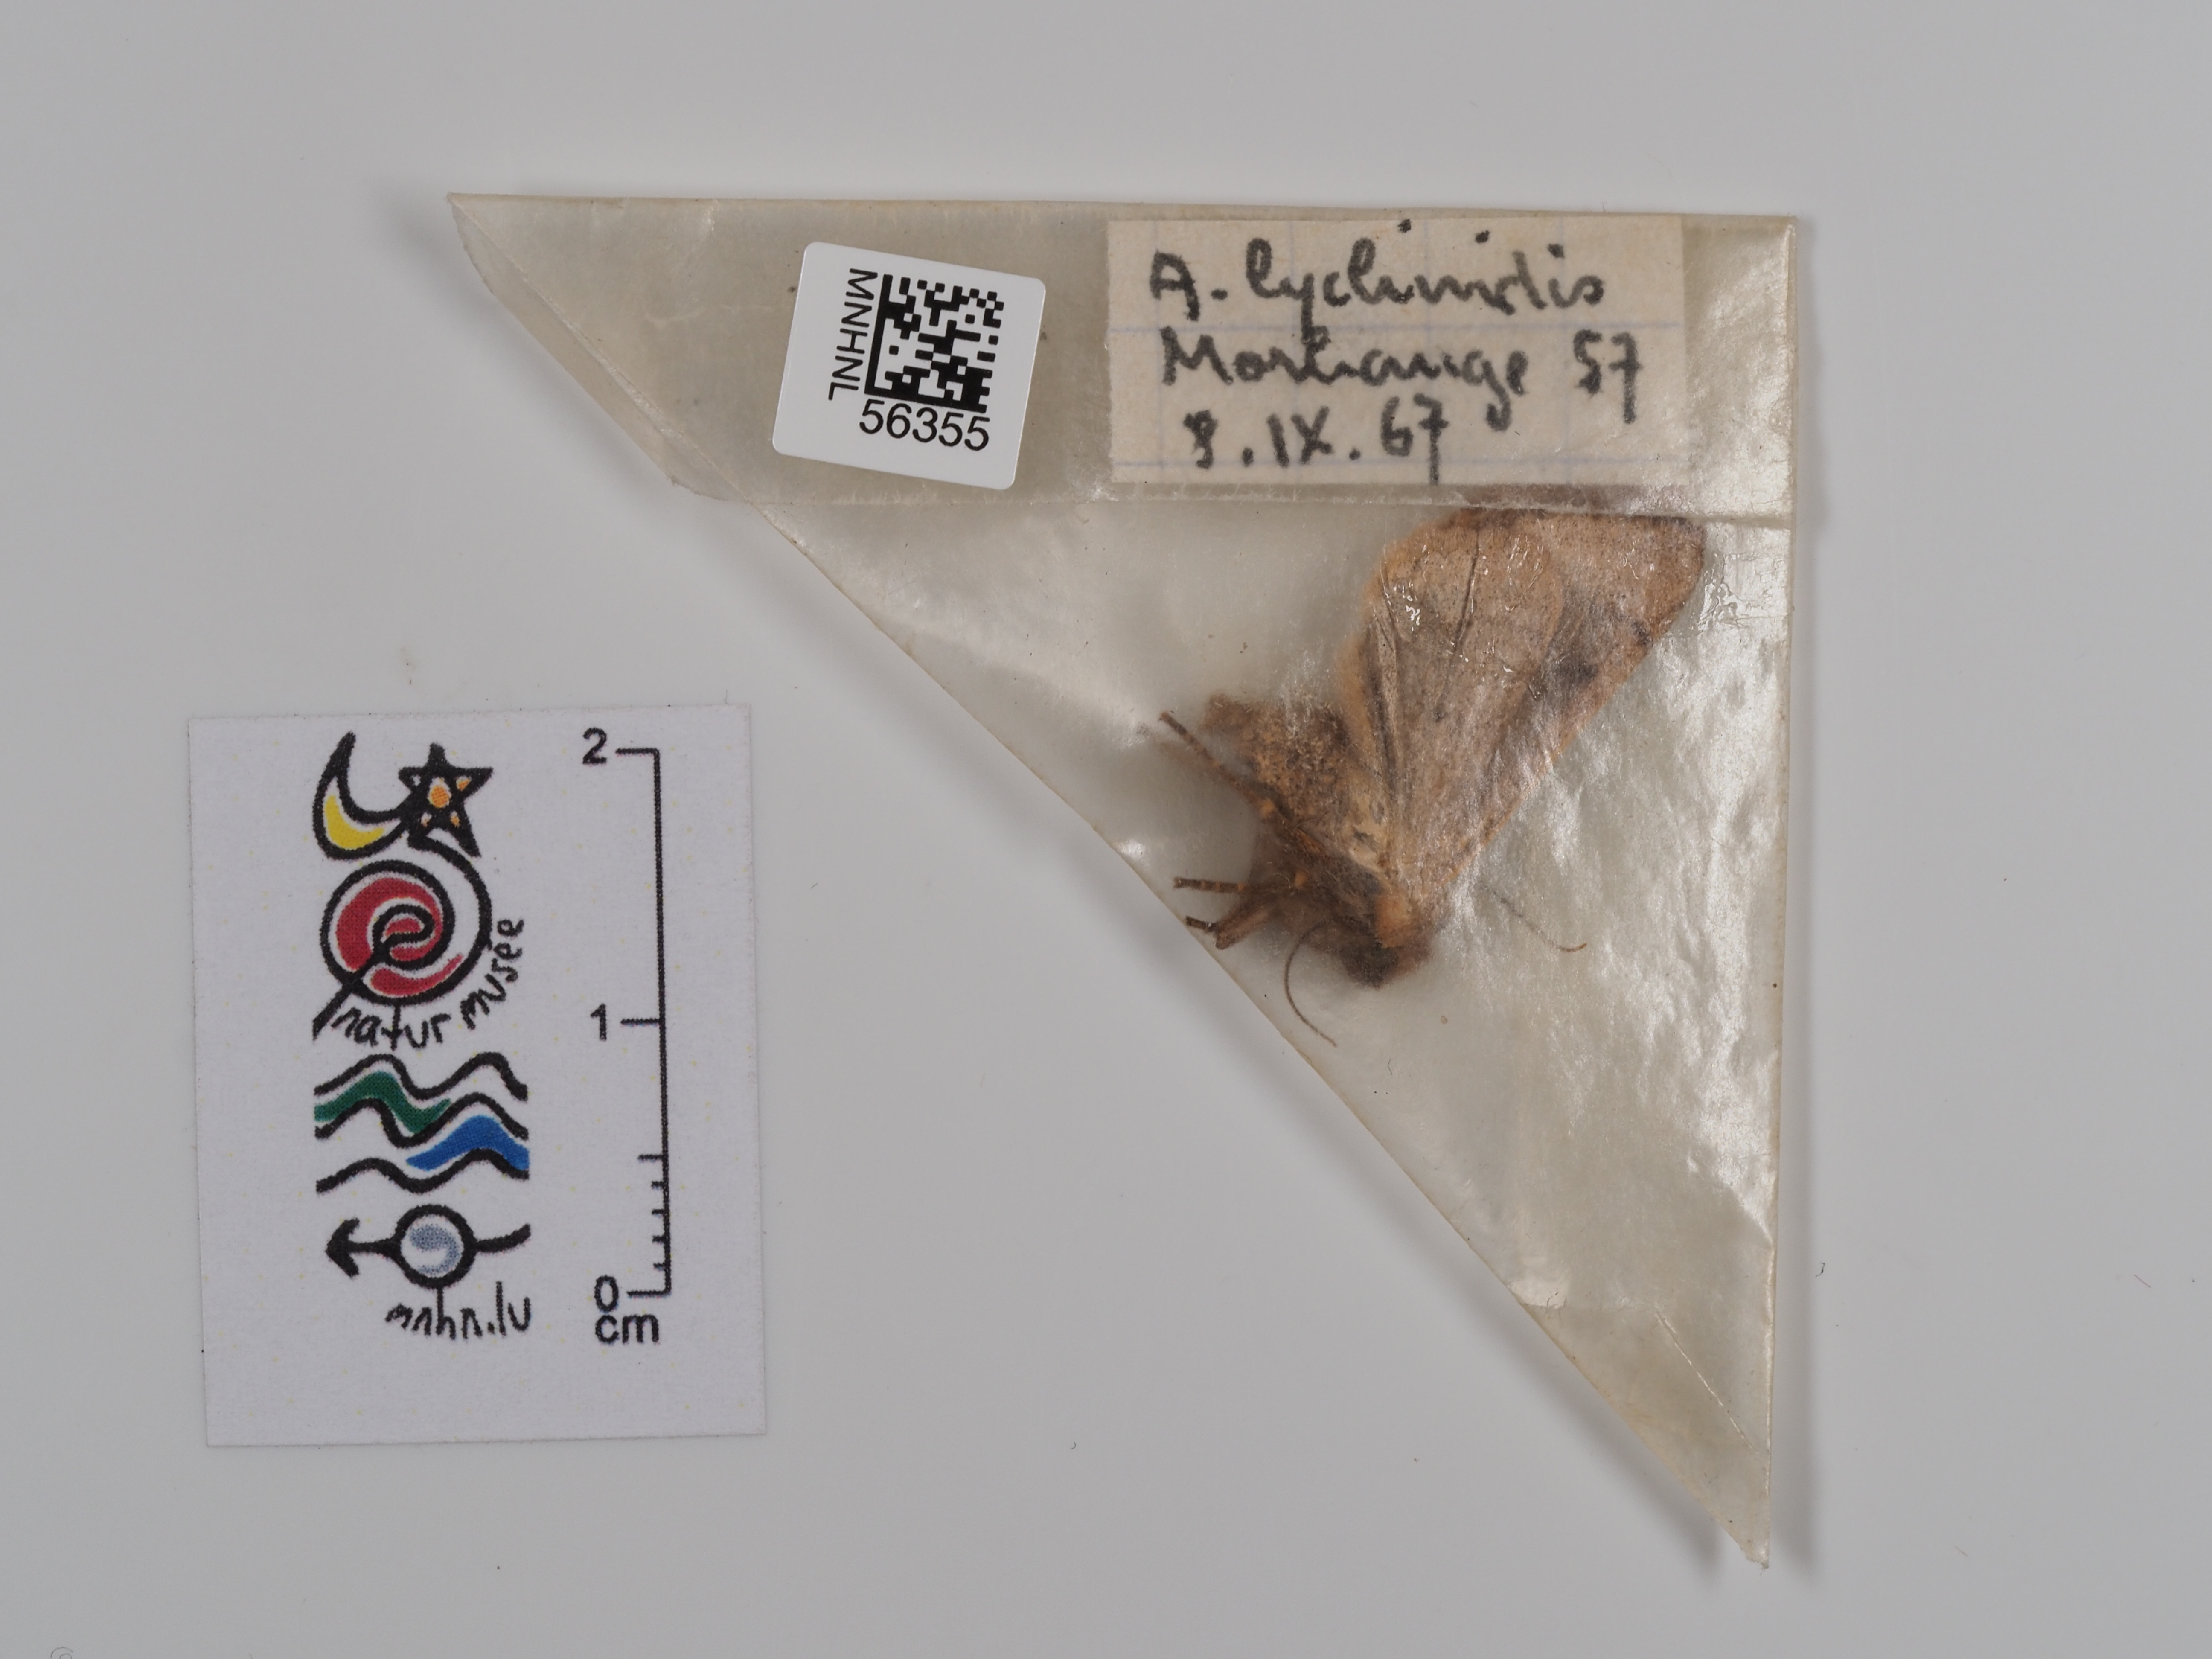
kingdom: Animalia
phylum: Arthropoda
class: Insecta
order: Lepidoptera
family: Noctuidae
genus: Agrochola
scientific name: Agrochola lychnidis
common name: Beaded chestnut
